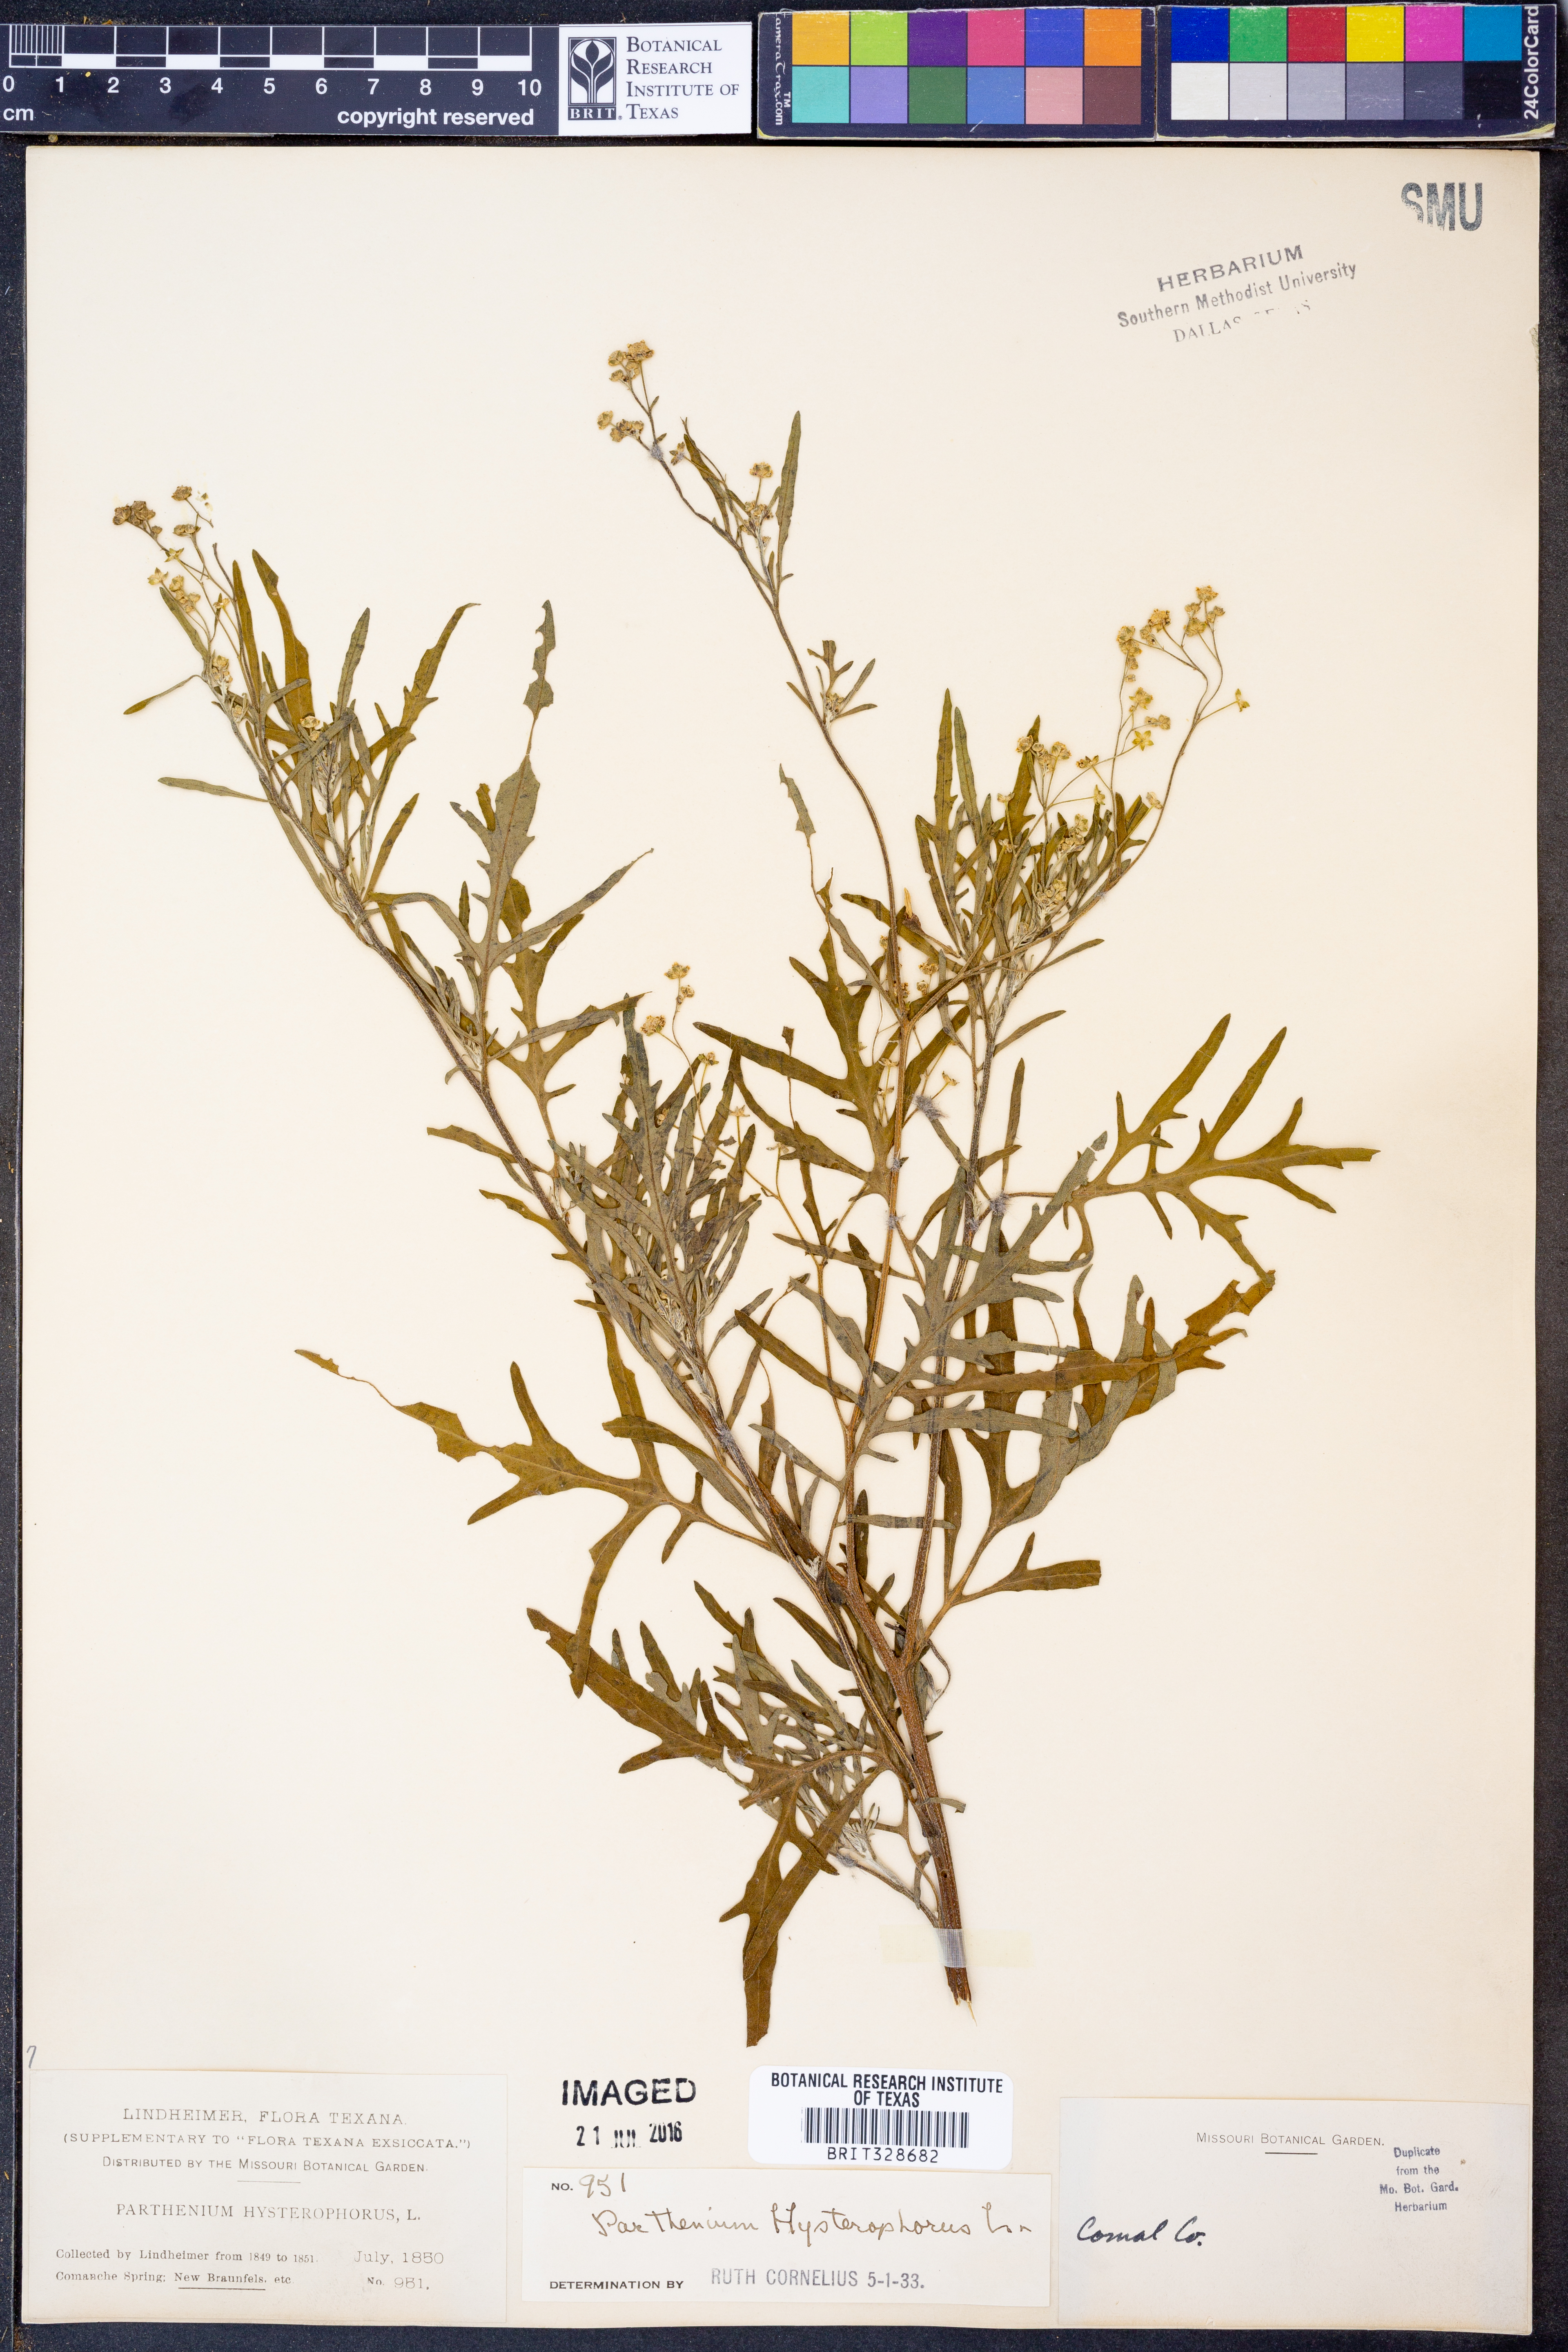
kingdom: Plantae
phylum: Tracheophyta
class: Magnoliopsida
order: Asterales
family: Asteraceae
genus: Parthenium
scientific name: Parthenium hysterophorus
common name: Santa maria feverfew
